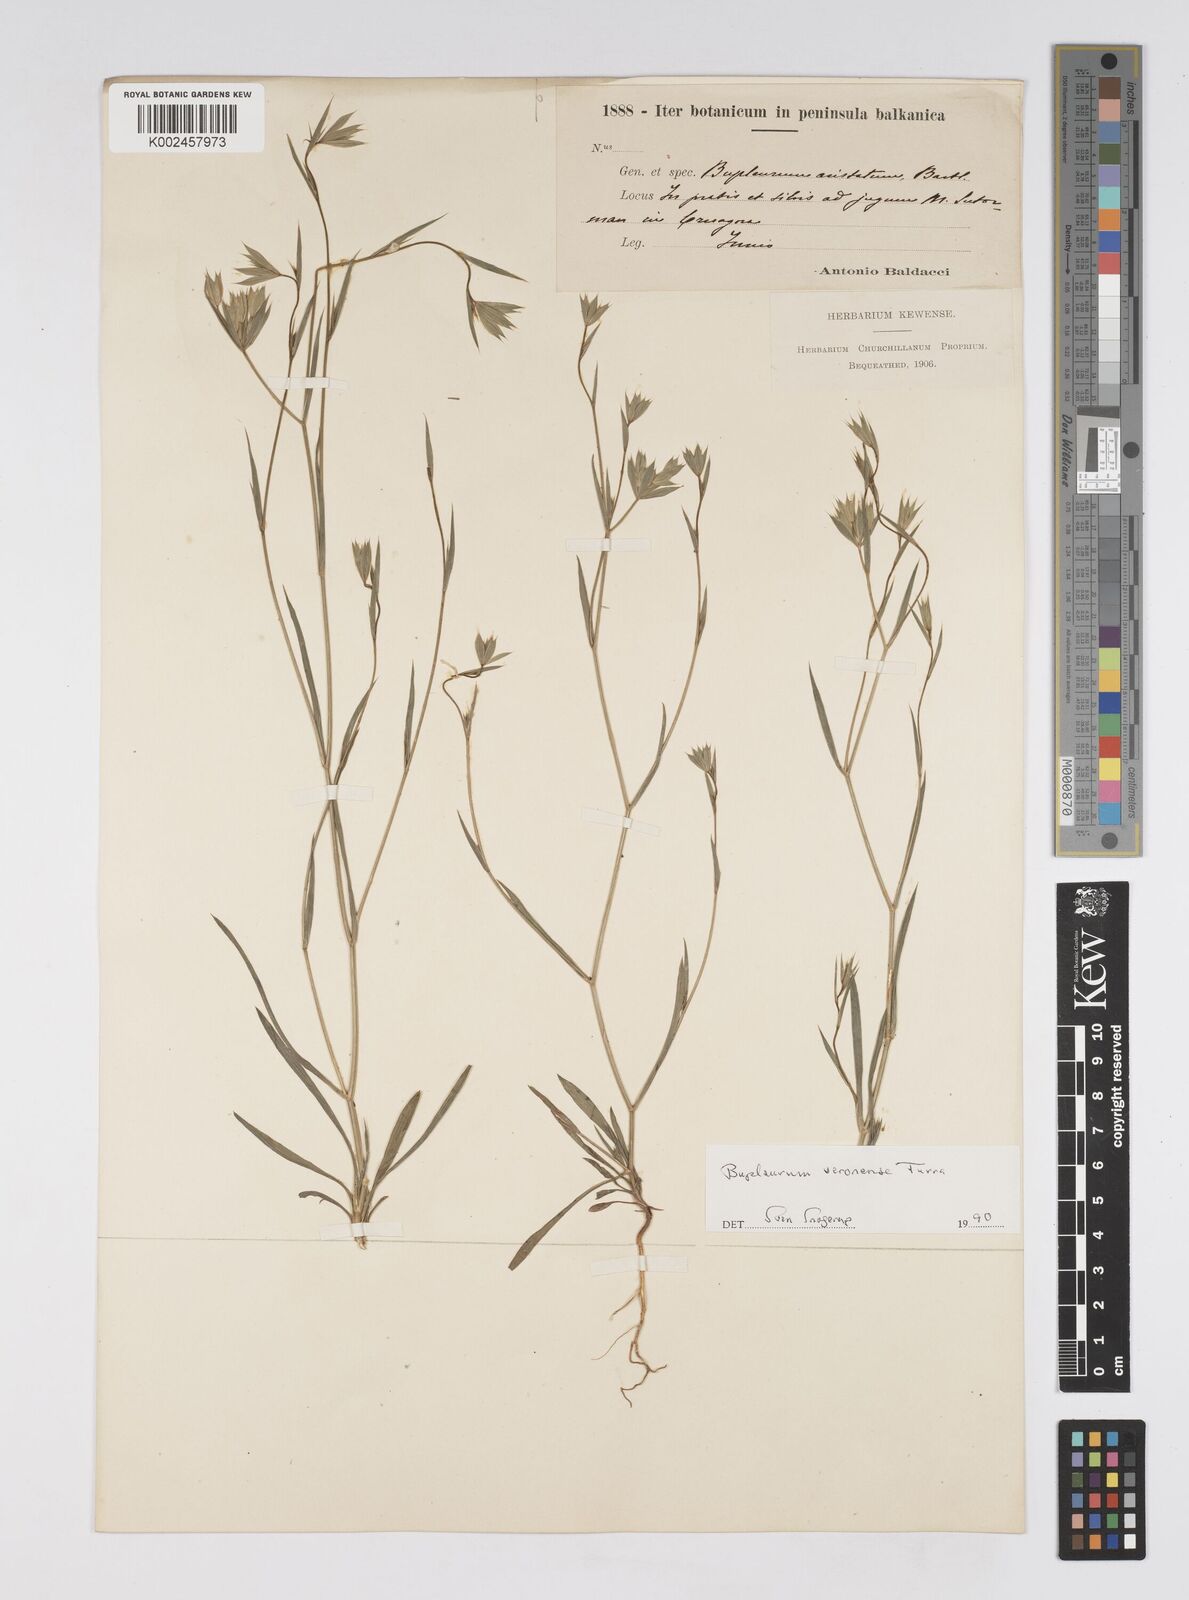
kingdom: Plantae
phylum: Tracheophyta
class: Magnoliopsida
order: Apiales
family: Apiaceae
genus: Bupleurum
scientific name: Bupleurum glumaceum
